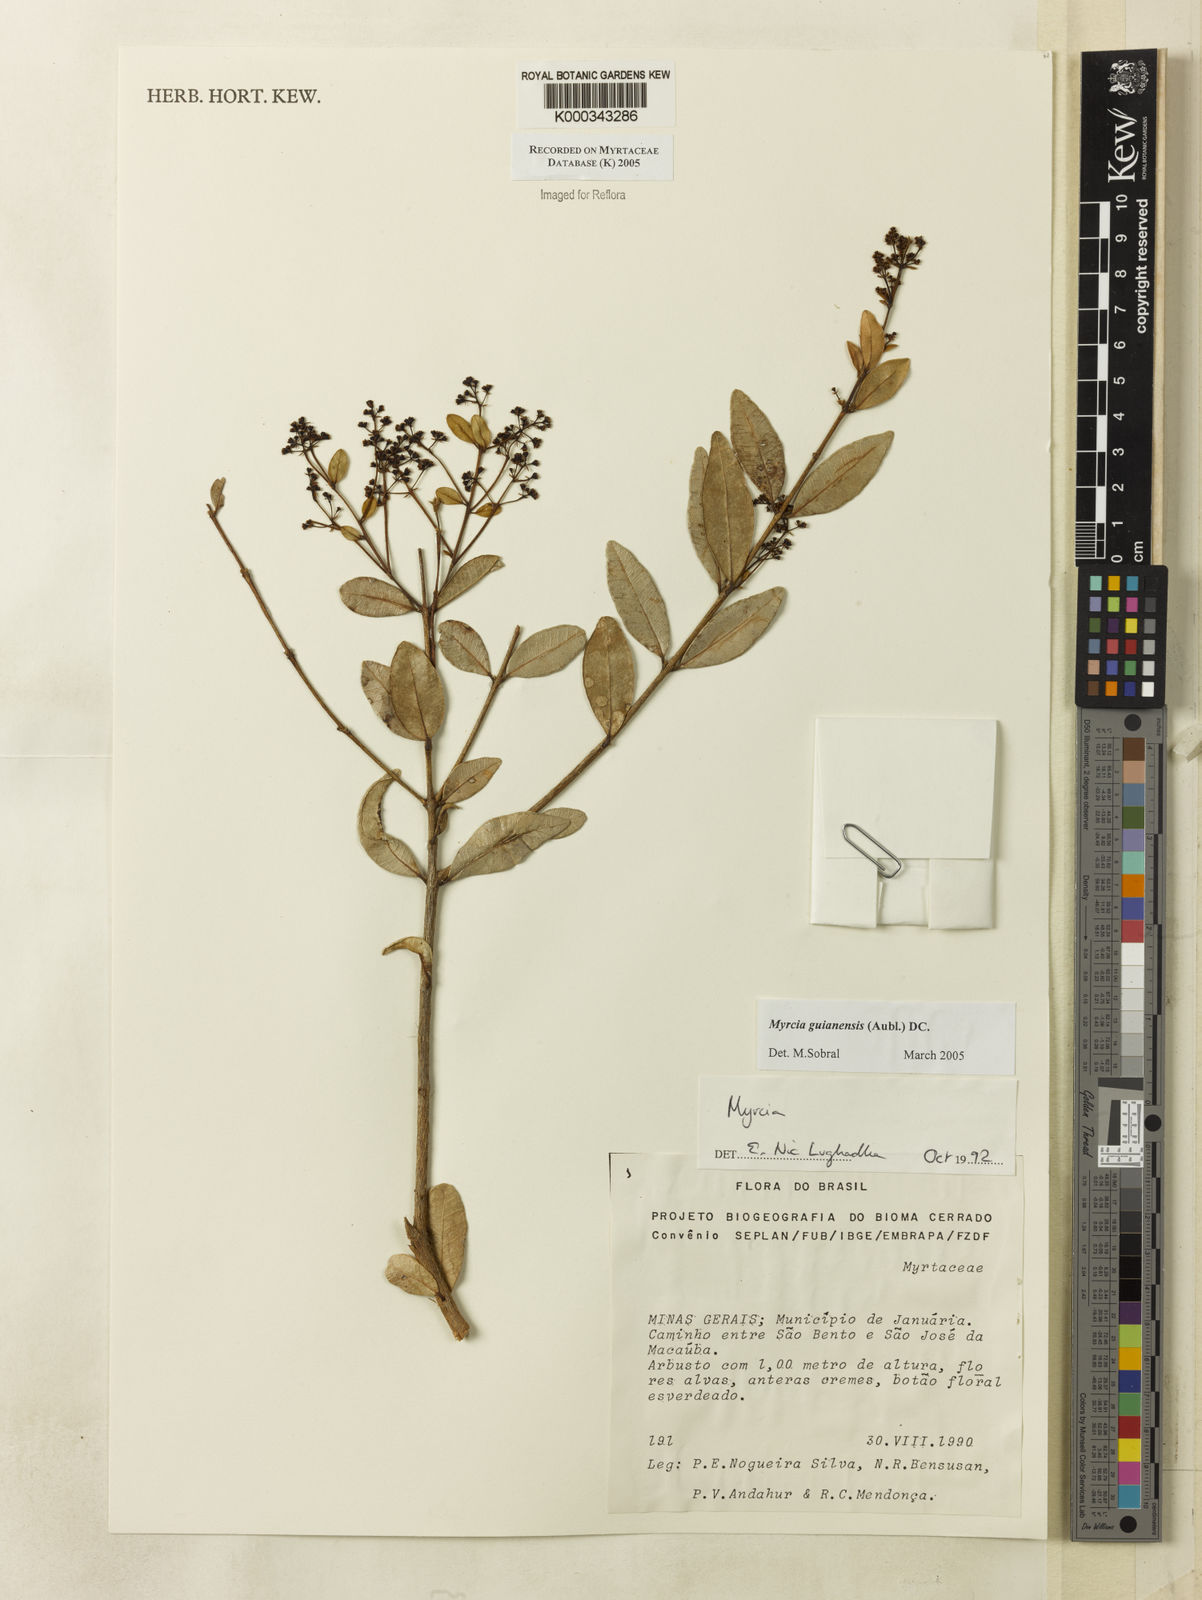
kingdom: Plantae
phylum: Tracheophyta
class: Magnoliopsida
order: Myrtales
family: Myrtaceae
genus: Myrcia
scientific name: Myrcia guianensis
